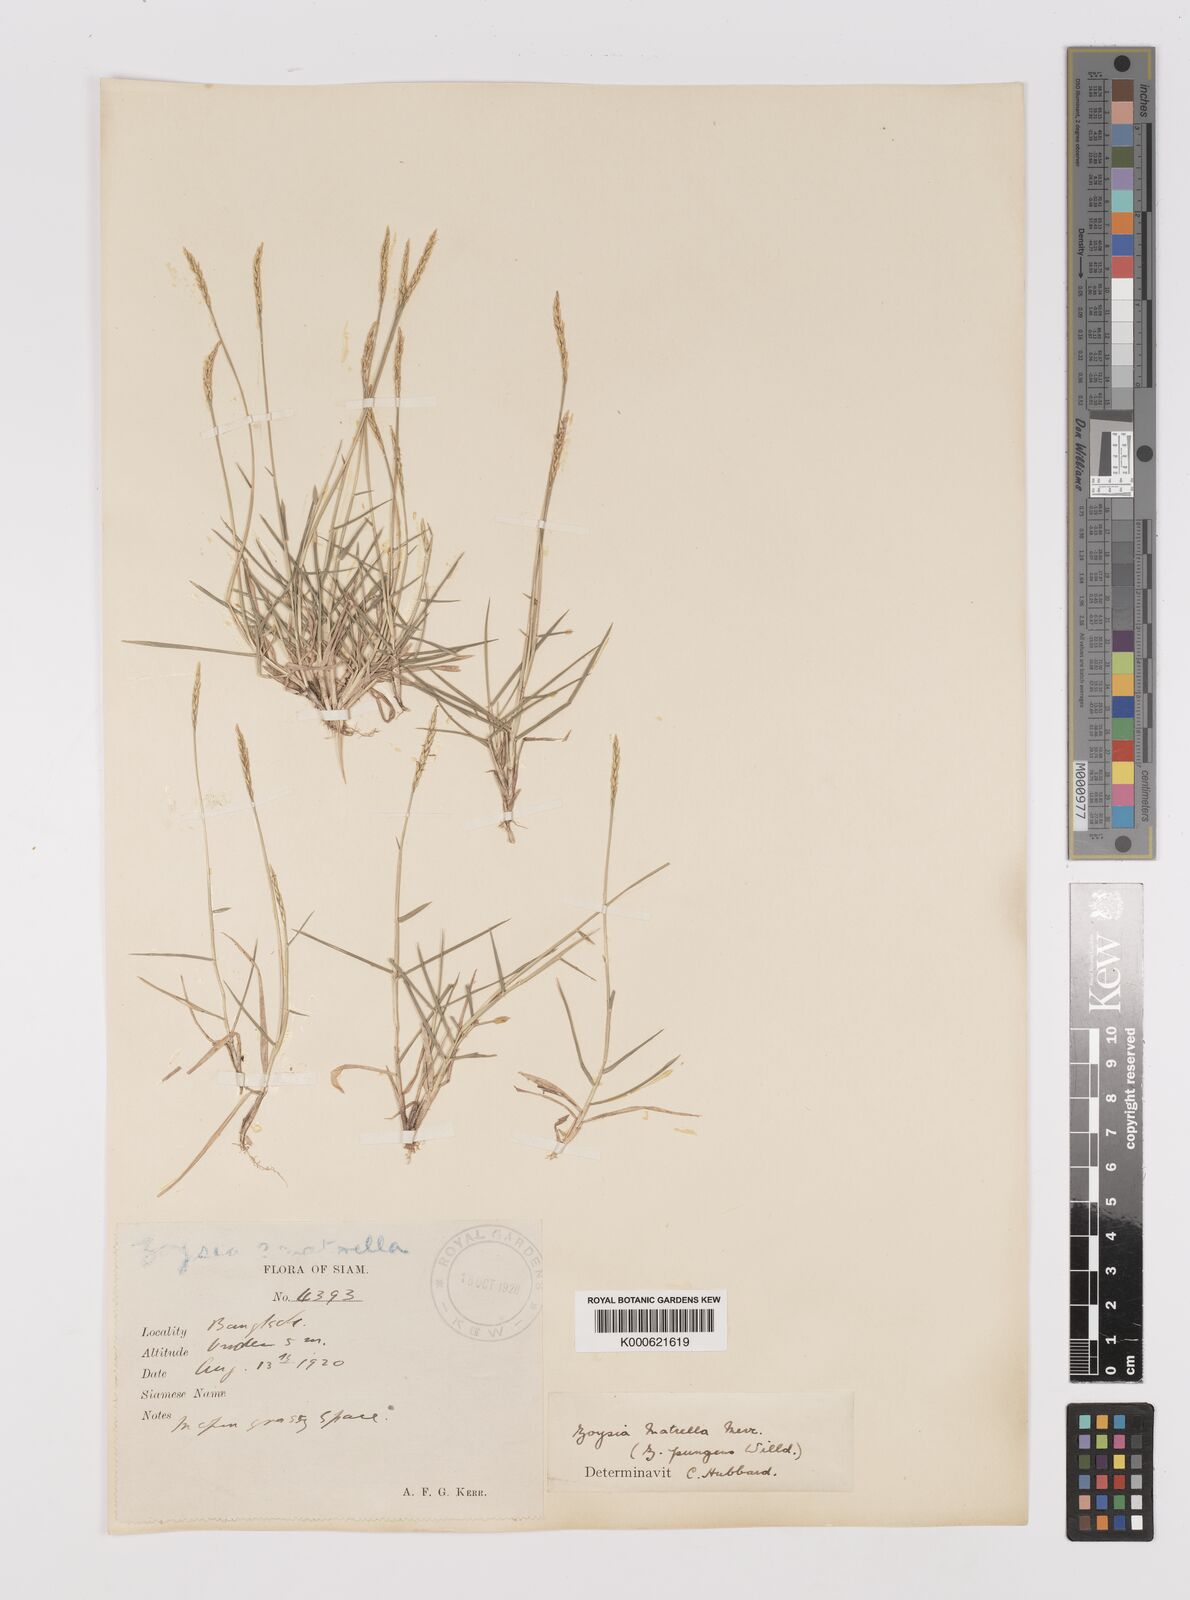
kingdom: Plantae
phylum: Tracheophyta
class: Liliopsida
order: Poales
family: Poaceae
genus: Zoysia
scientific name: Zoysia matrella
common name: Manila grass
